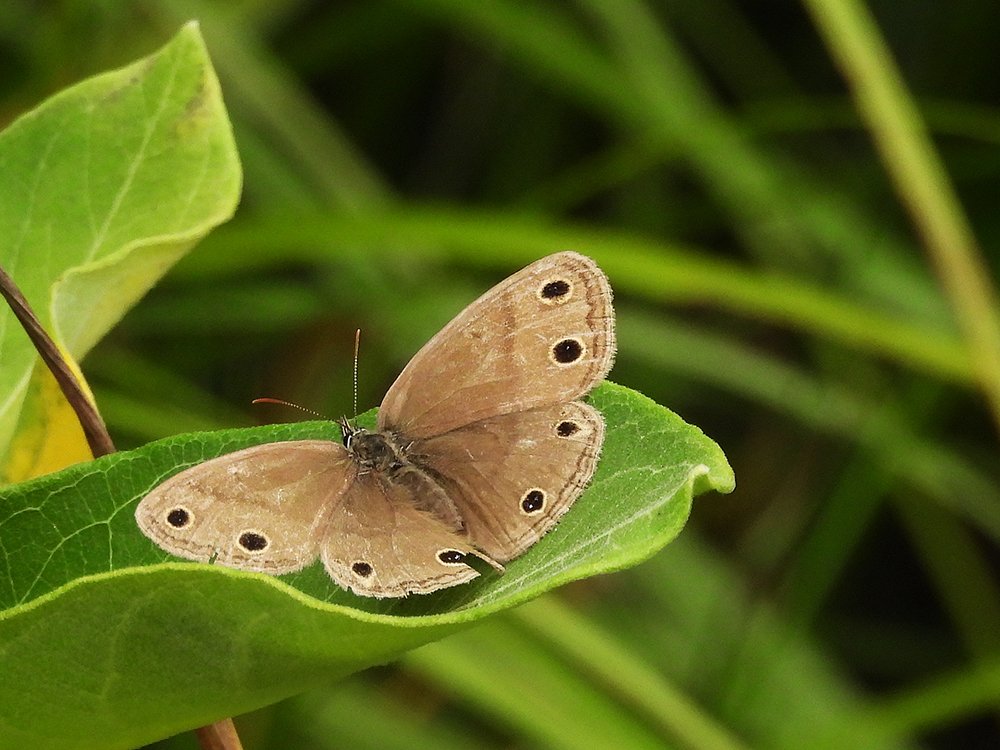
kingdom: Animalia
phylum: Arthropoda
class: Insecta
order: Lepidoptera
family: Nymphalidae
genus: Euptychia
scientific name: Euptychia cymela
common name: Little Wood Satyr
